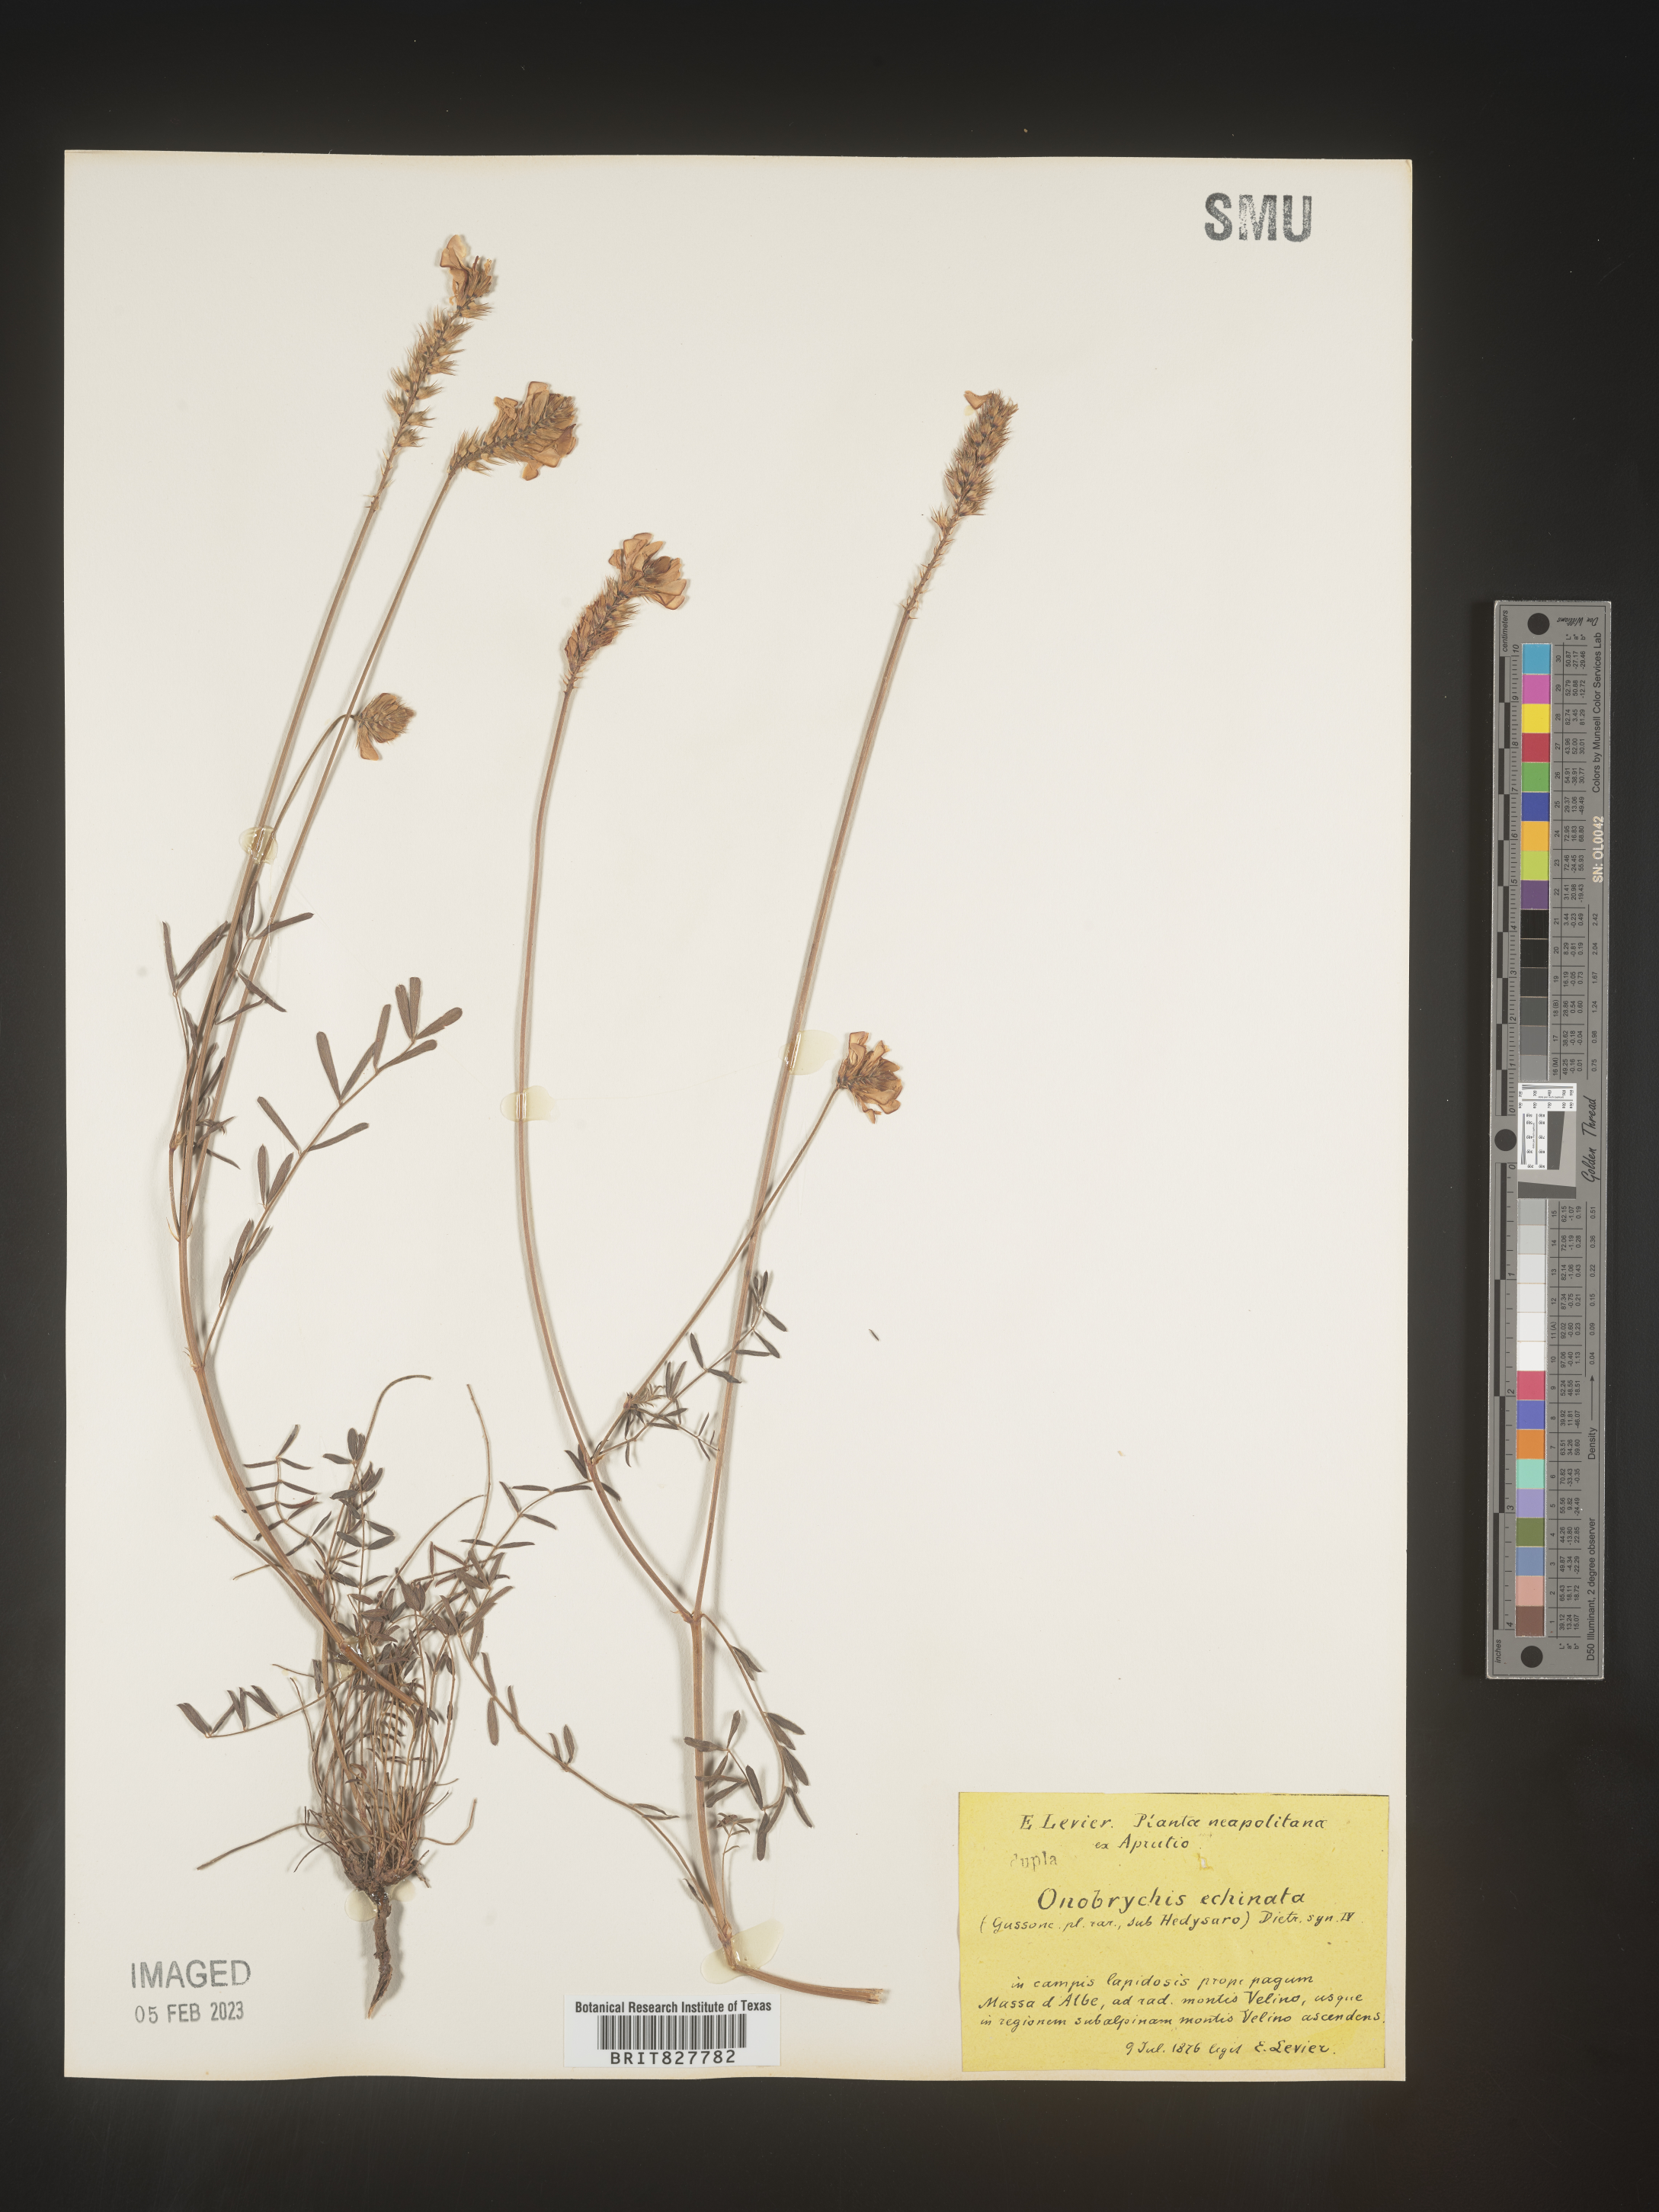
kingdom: Plantae
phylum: Tracheophyta
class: Magnoliopsida
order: Fabales
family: Fabaceae
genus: Onobrychis
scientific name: Onobrychis
